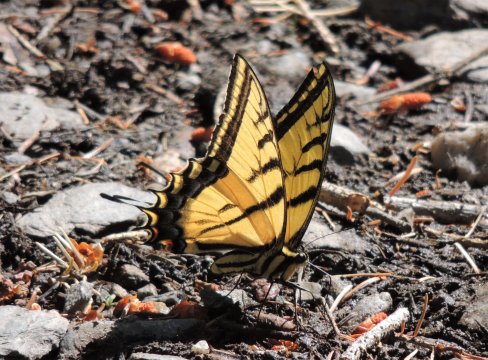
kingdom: Animalia
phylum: Arthropoda
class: Insecta
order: Lepidoptera
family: Papilionidae
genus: Papilio
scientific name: Papilio multicaudata
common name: Two-tailed Swallowtail
